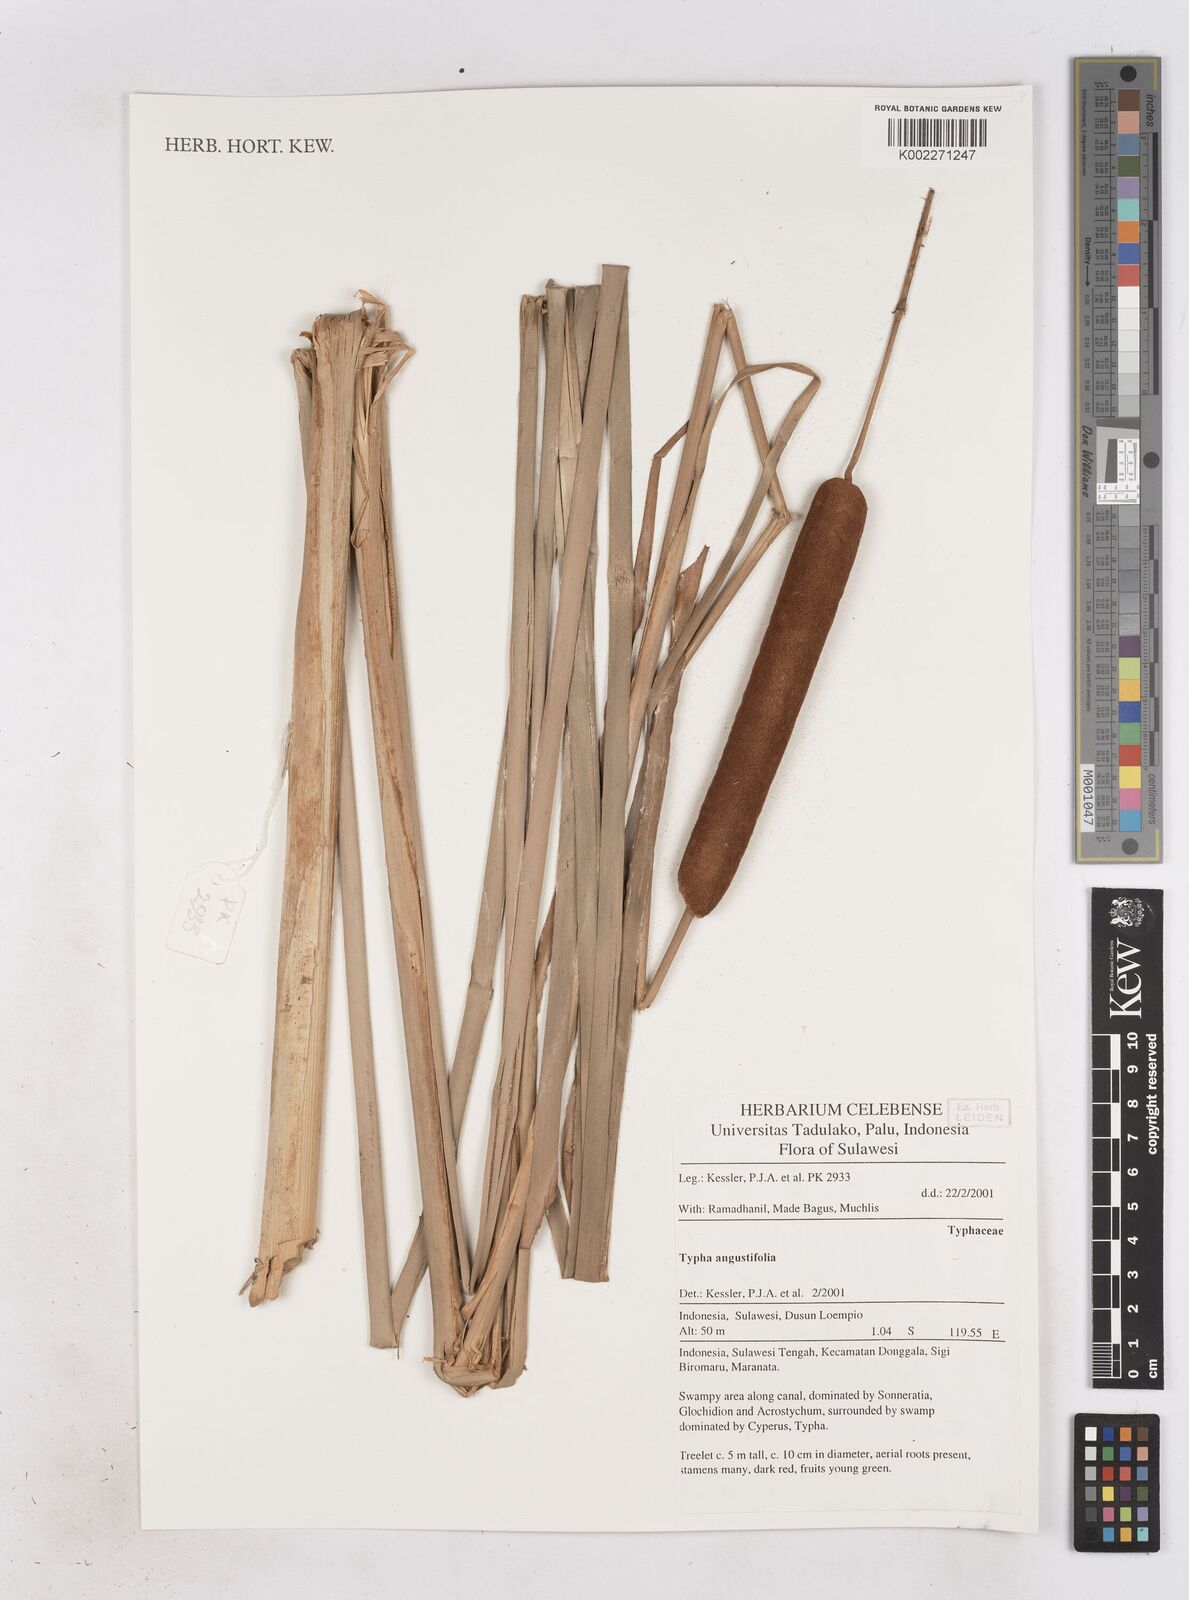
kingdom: Plantae
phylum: Tracheophyta
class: Liliopsida
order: Poales
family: Typhaceae
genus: Typha
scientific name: Typha angustifolia
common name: Lesser bulrush
